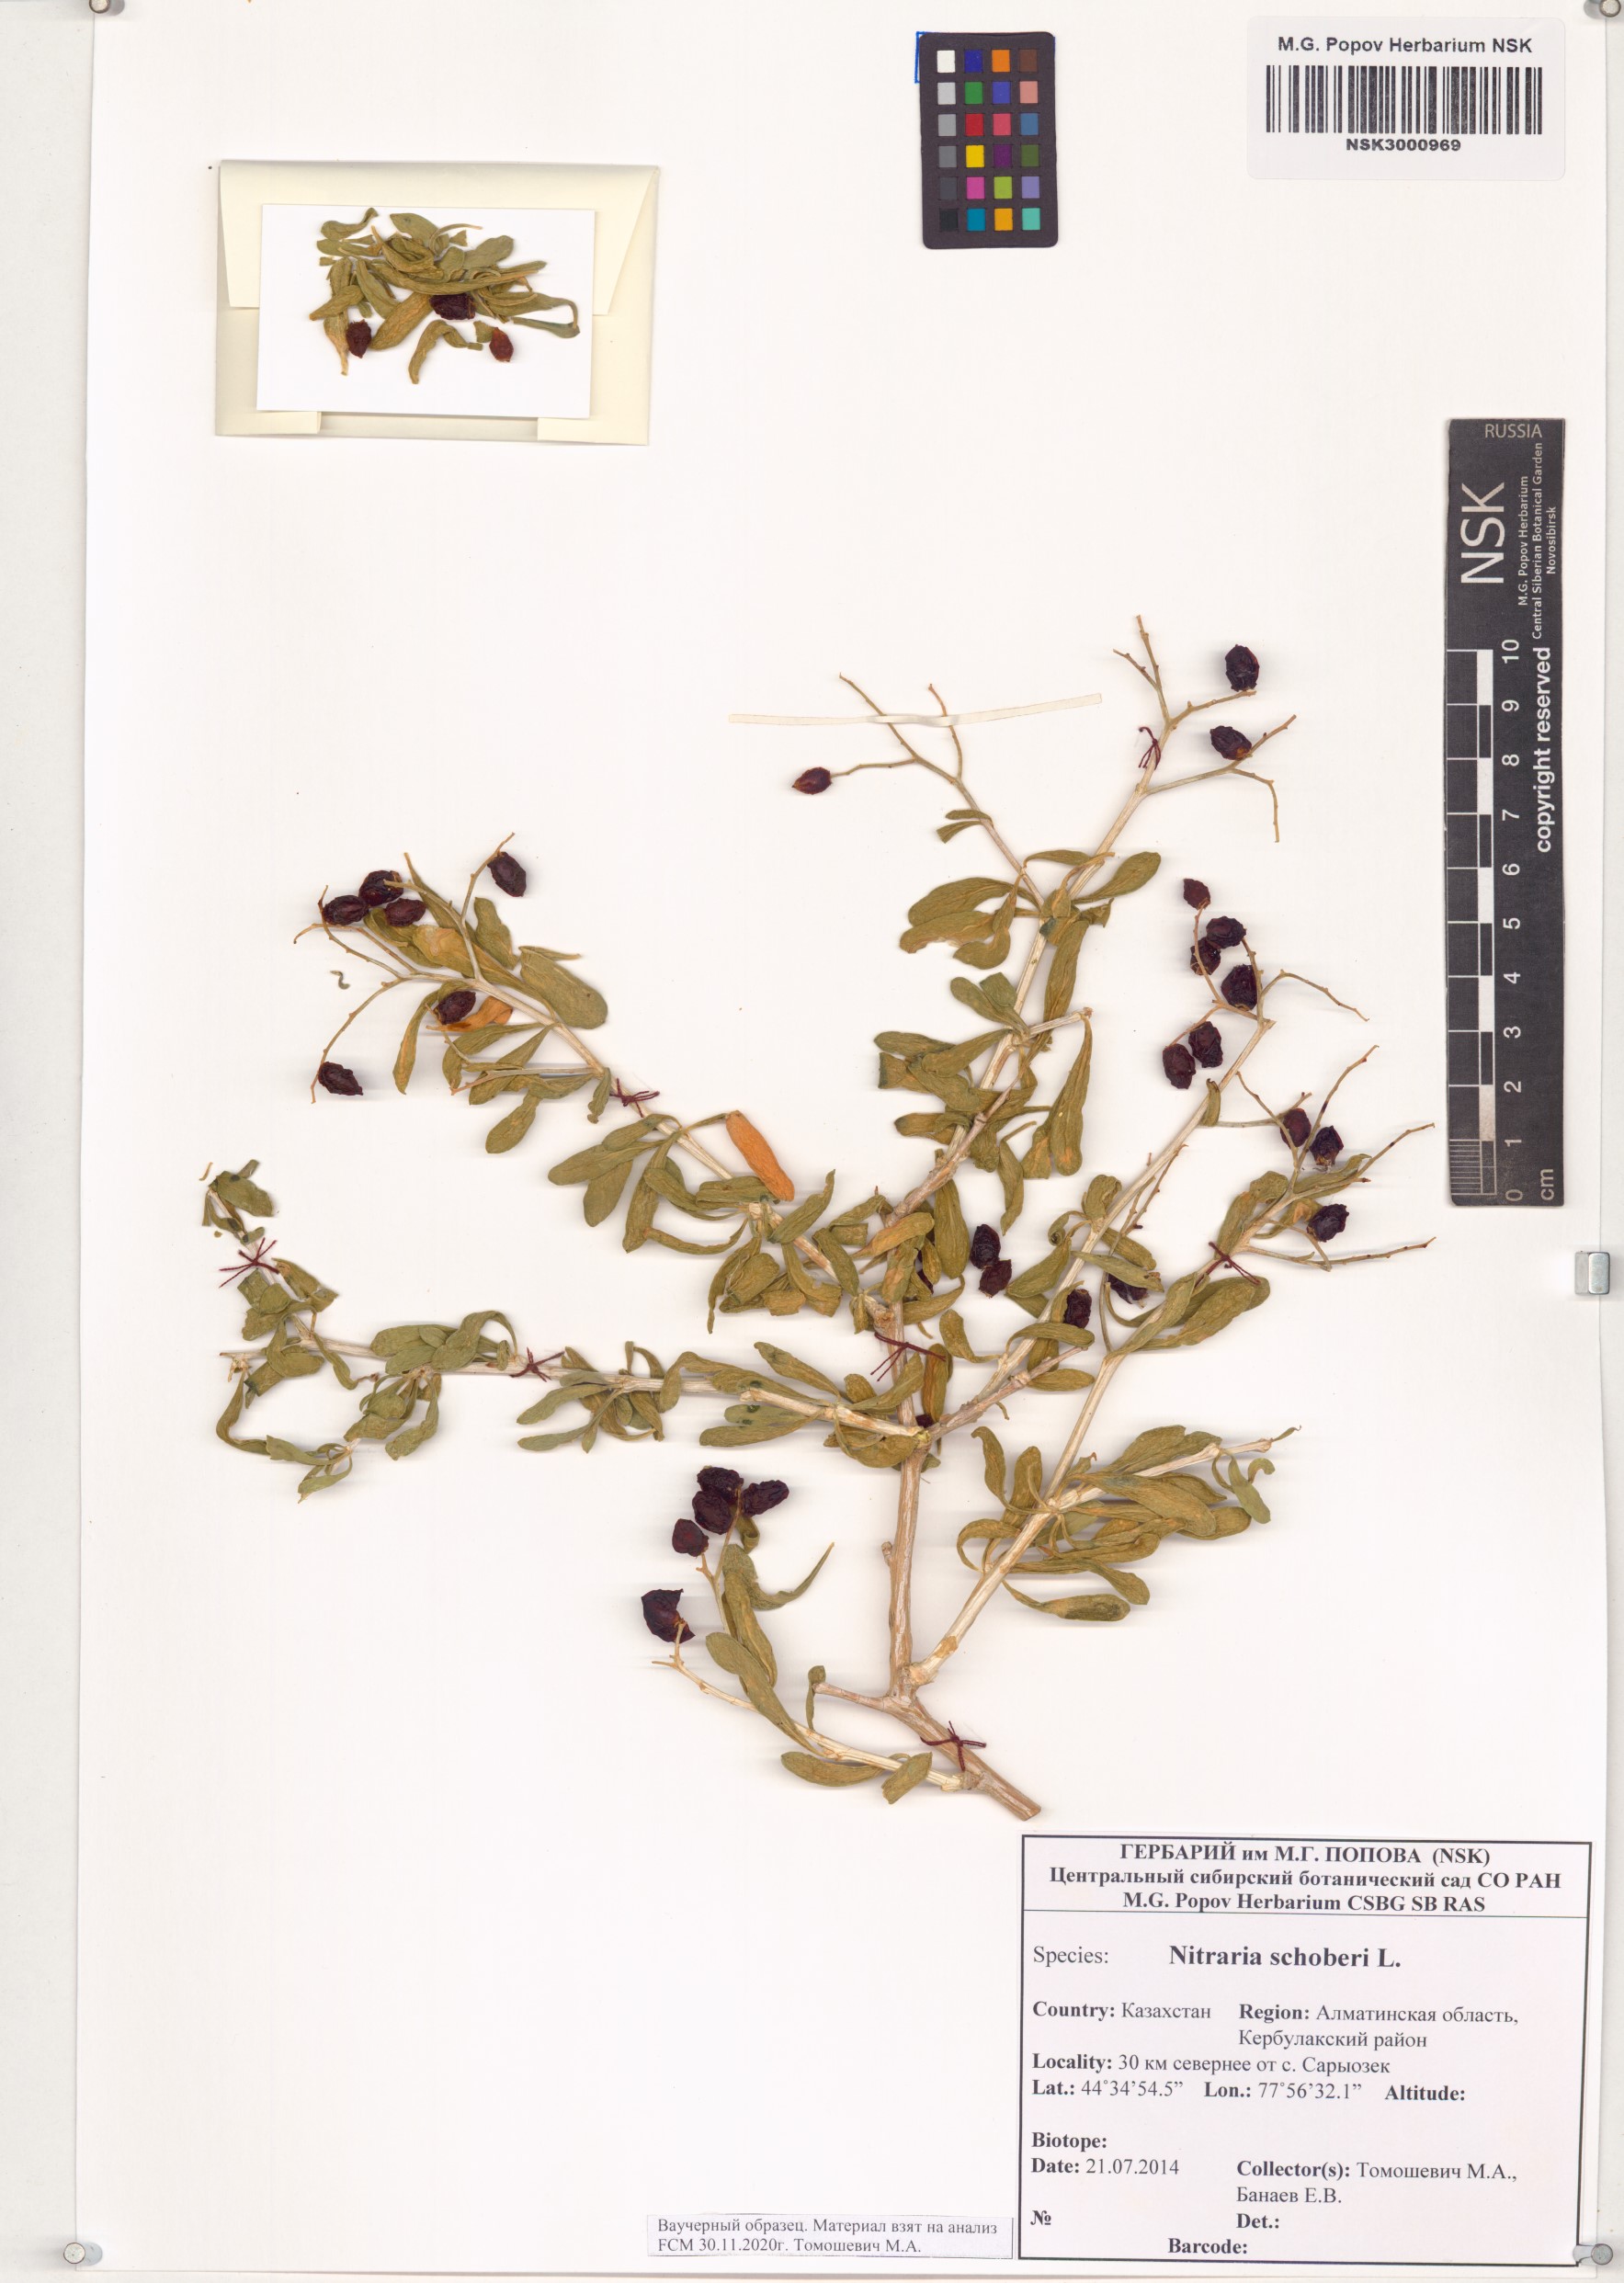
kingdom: Plantae
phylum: Tracheophyta
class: Magnoliopsida
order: Sapindales
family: Nitrariaceae
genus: Nitraria
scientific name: Nitraria schoberi
